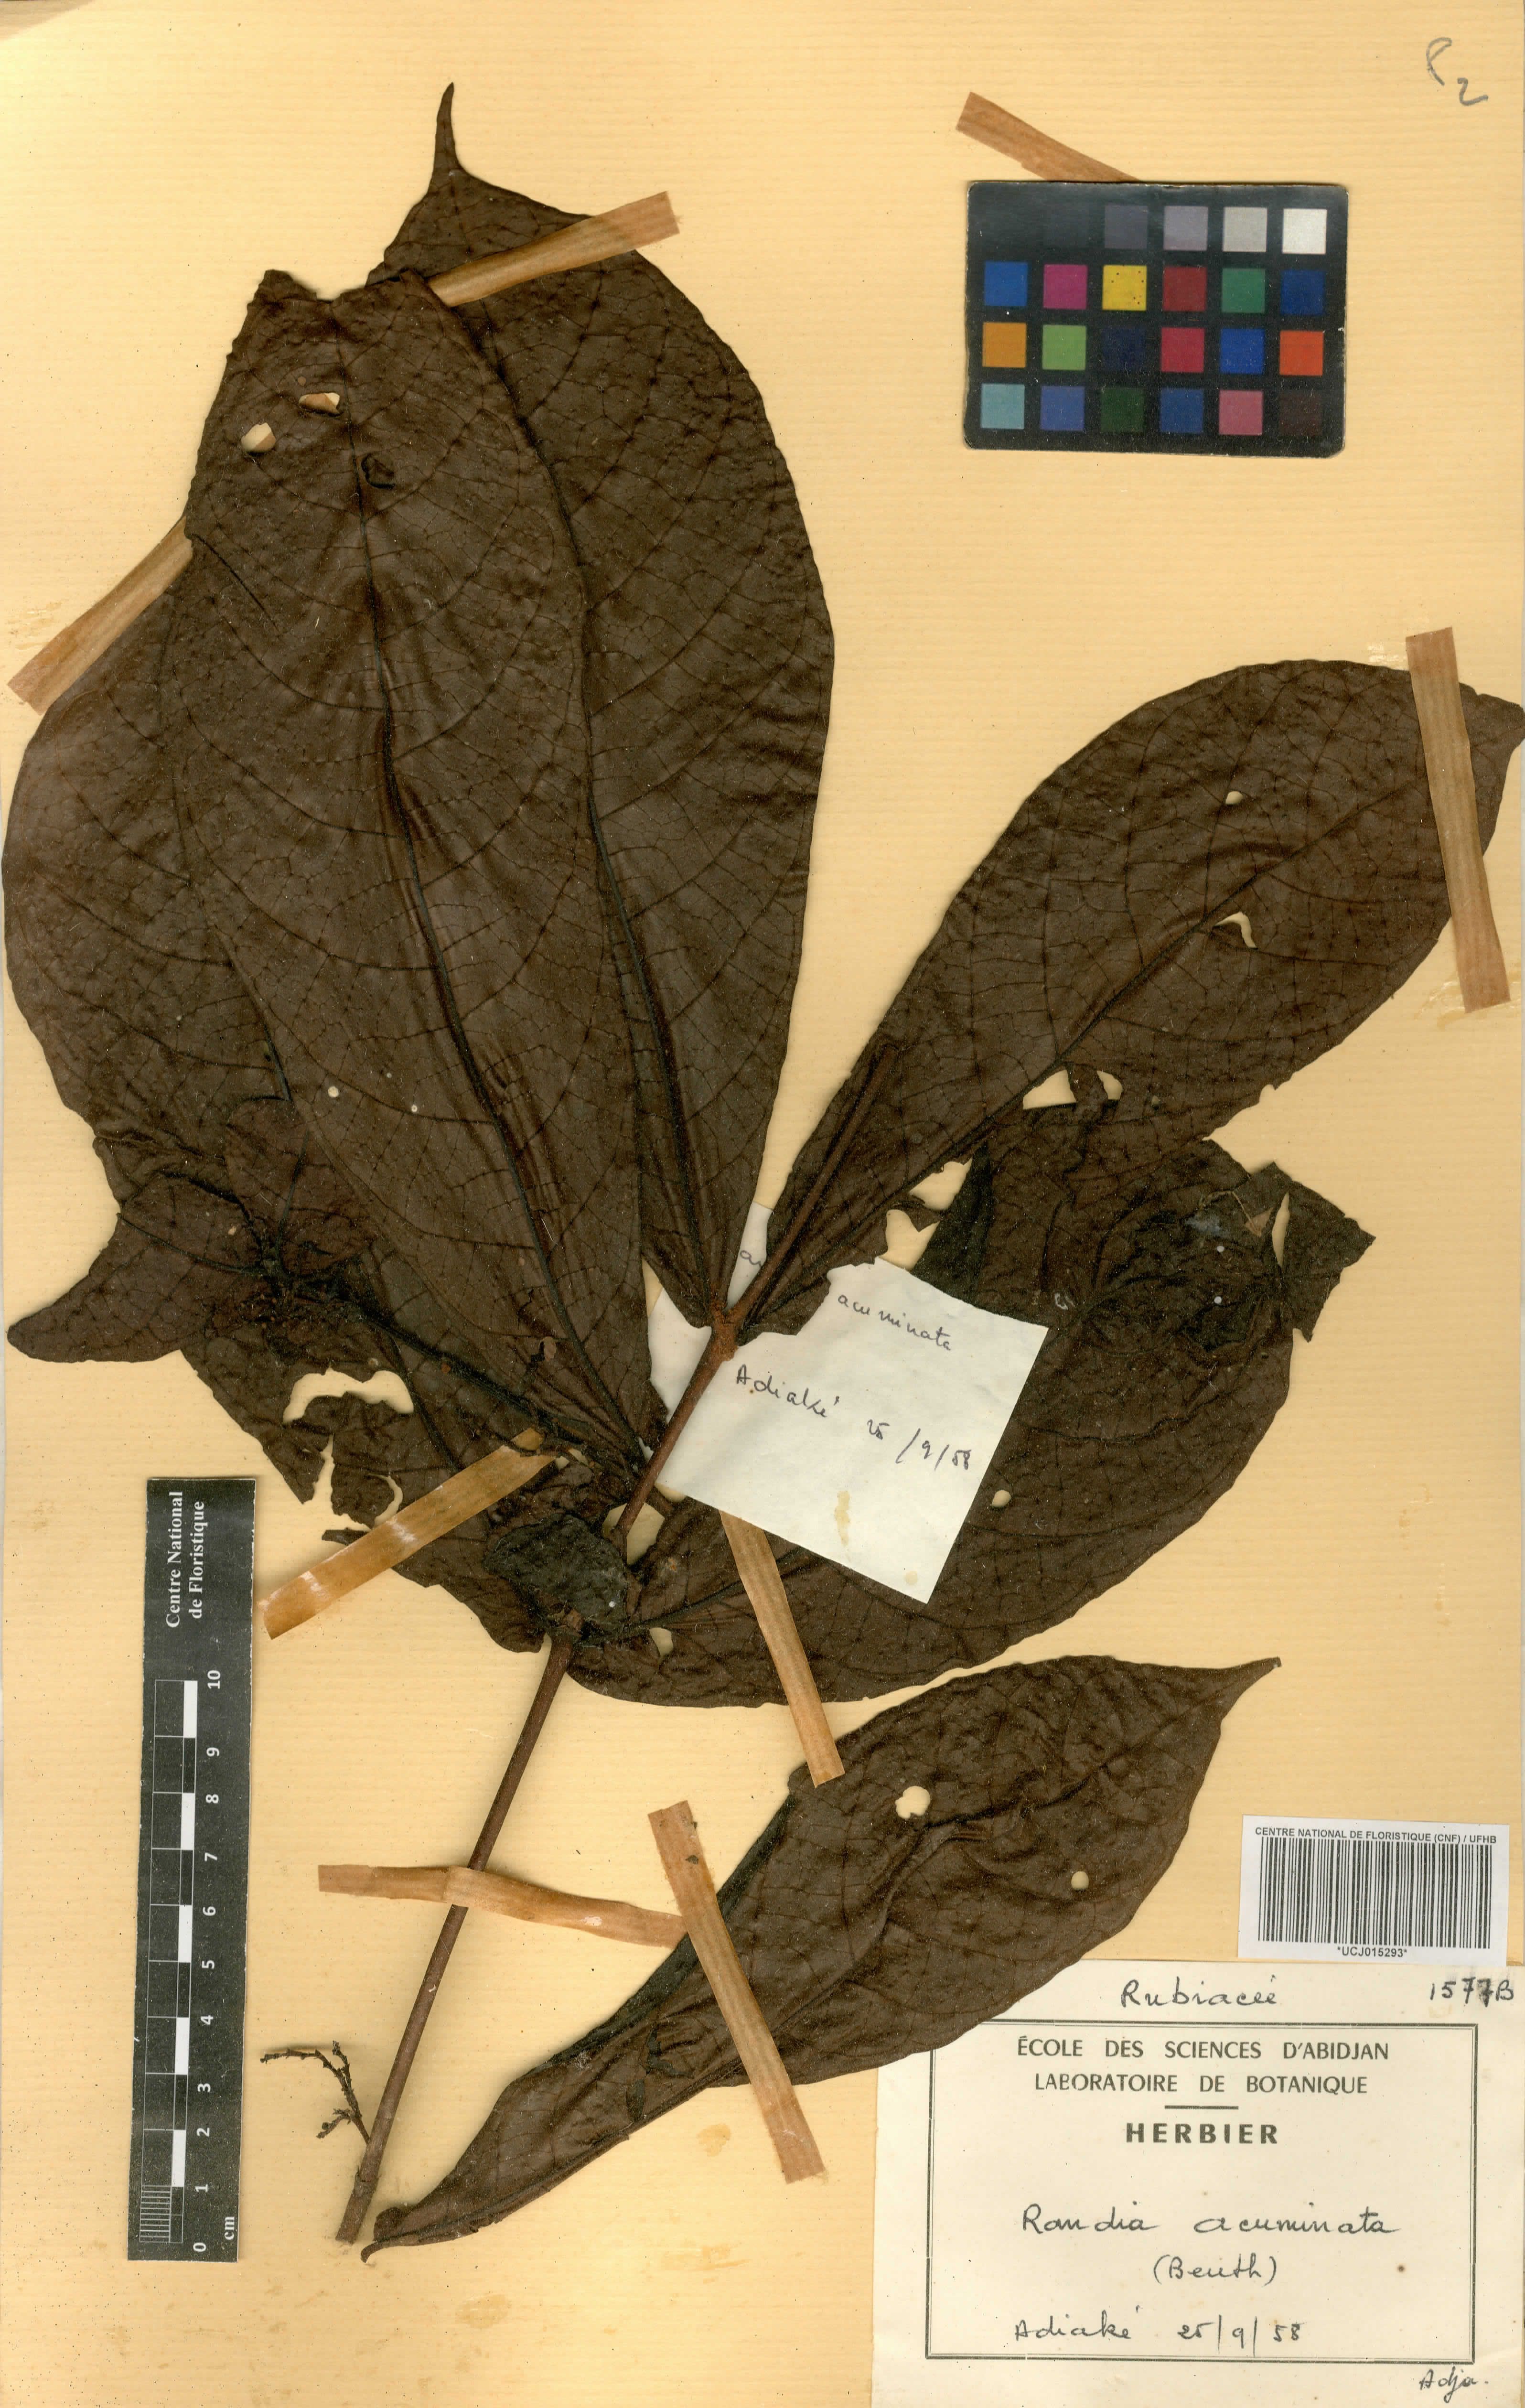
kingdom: Plantae
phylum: Tracheophyta
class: Magnoliopsida
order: Gentianales
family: Rubiaceae
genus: Massularia
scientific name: Massularia acuminata
